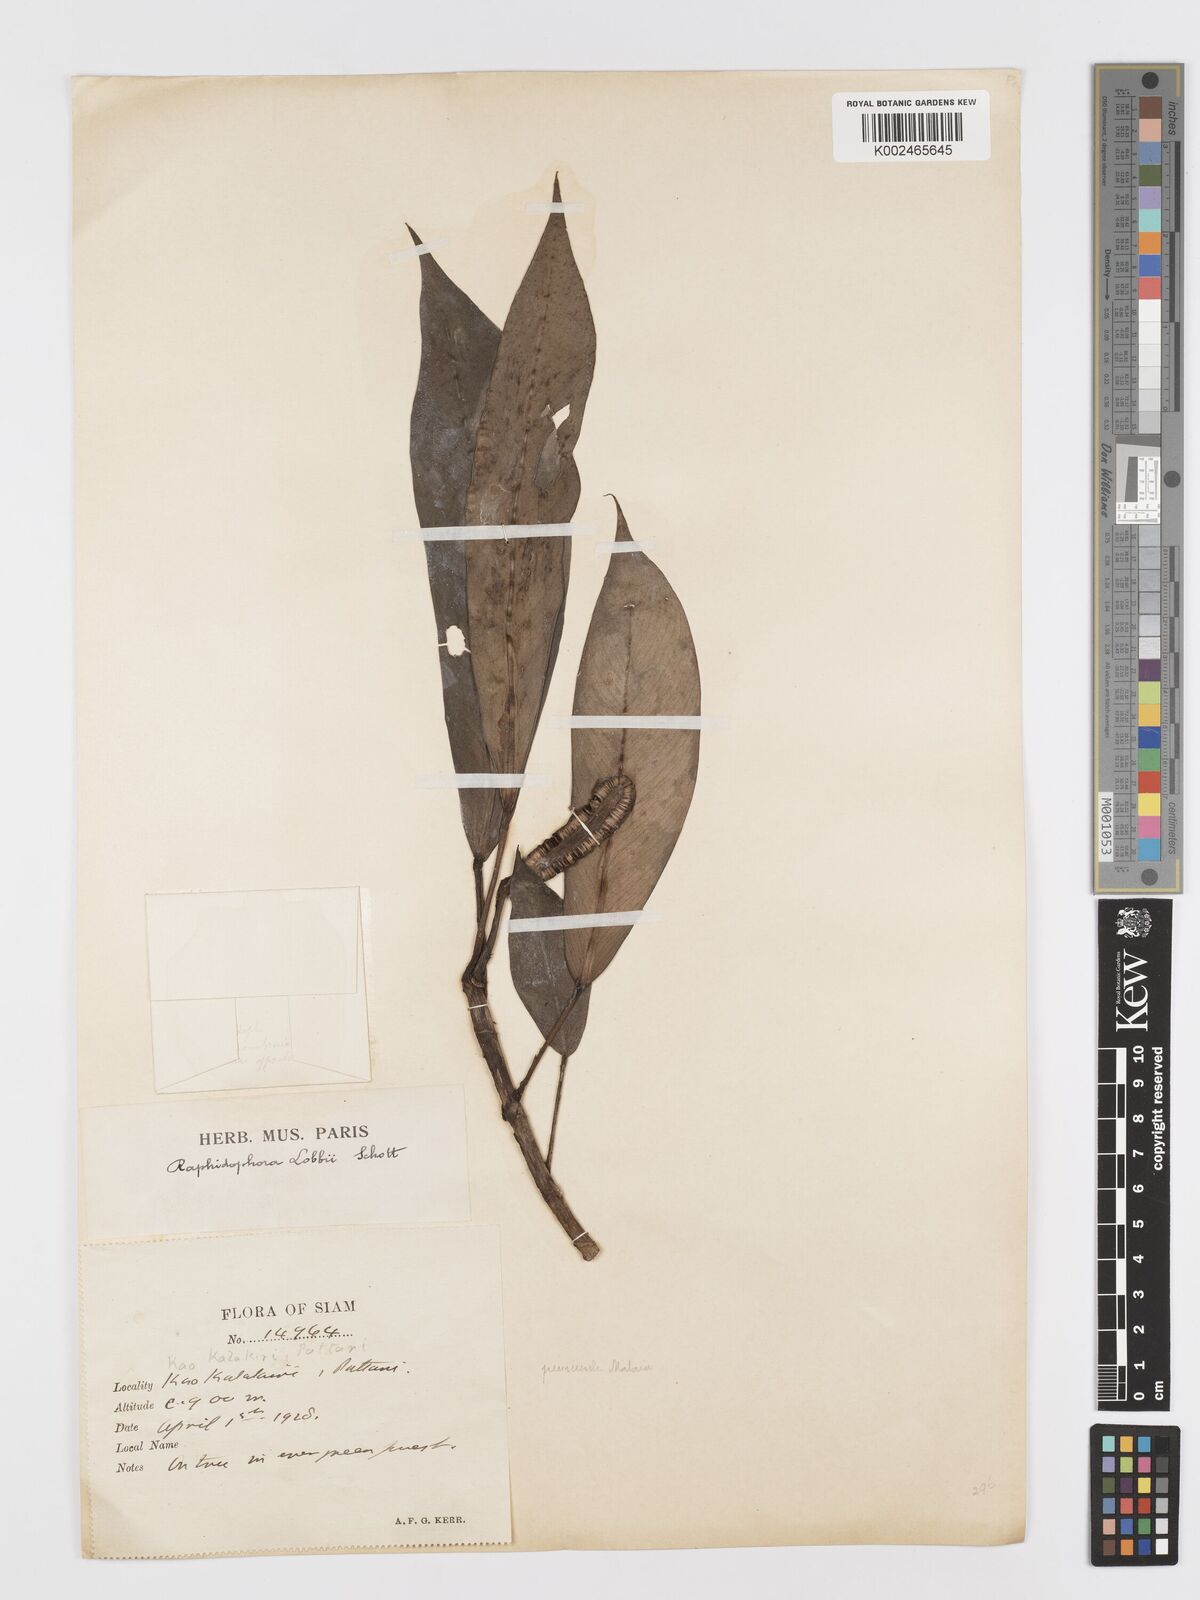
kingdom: Plantae
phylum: Tracheophyta
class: Liliopsida
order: Alismatales
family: Araceae
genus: Rhaphidophora
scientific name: Rhaphidophora sylvestris
